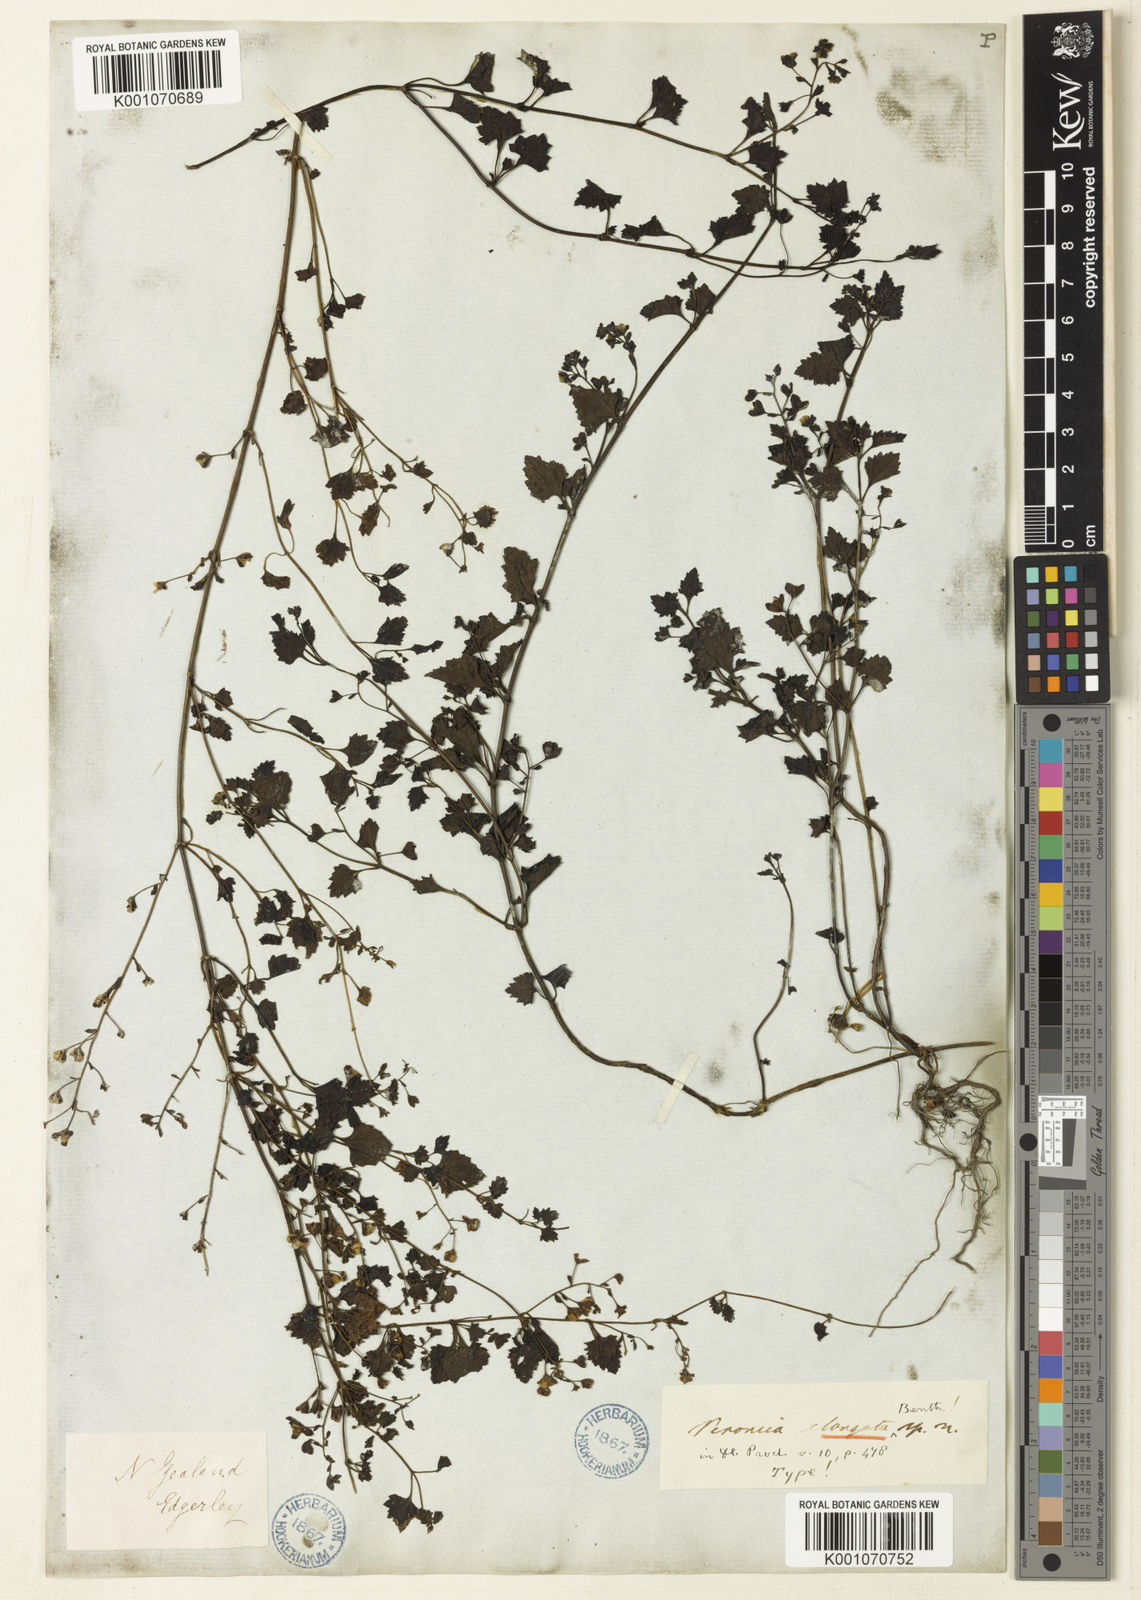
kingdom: Plantae
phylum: Tracheophyta
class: Magnoliopsida
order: Lamiales
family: Plantaginaceae
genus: Veronica
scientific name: Veronica
